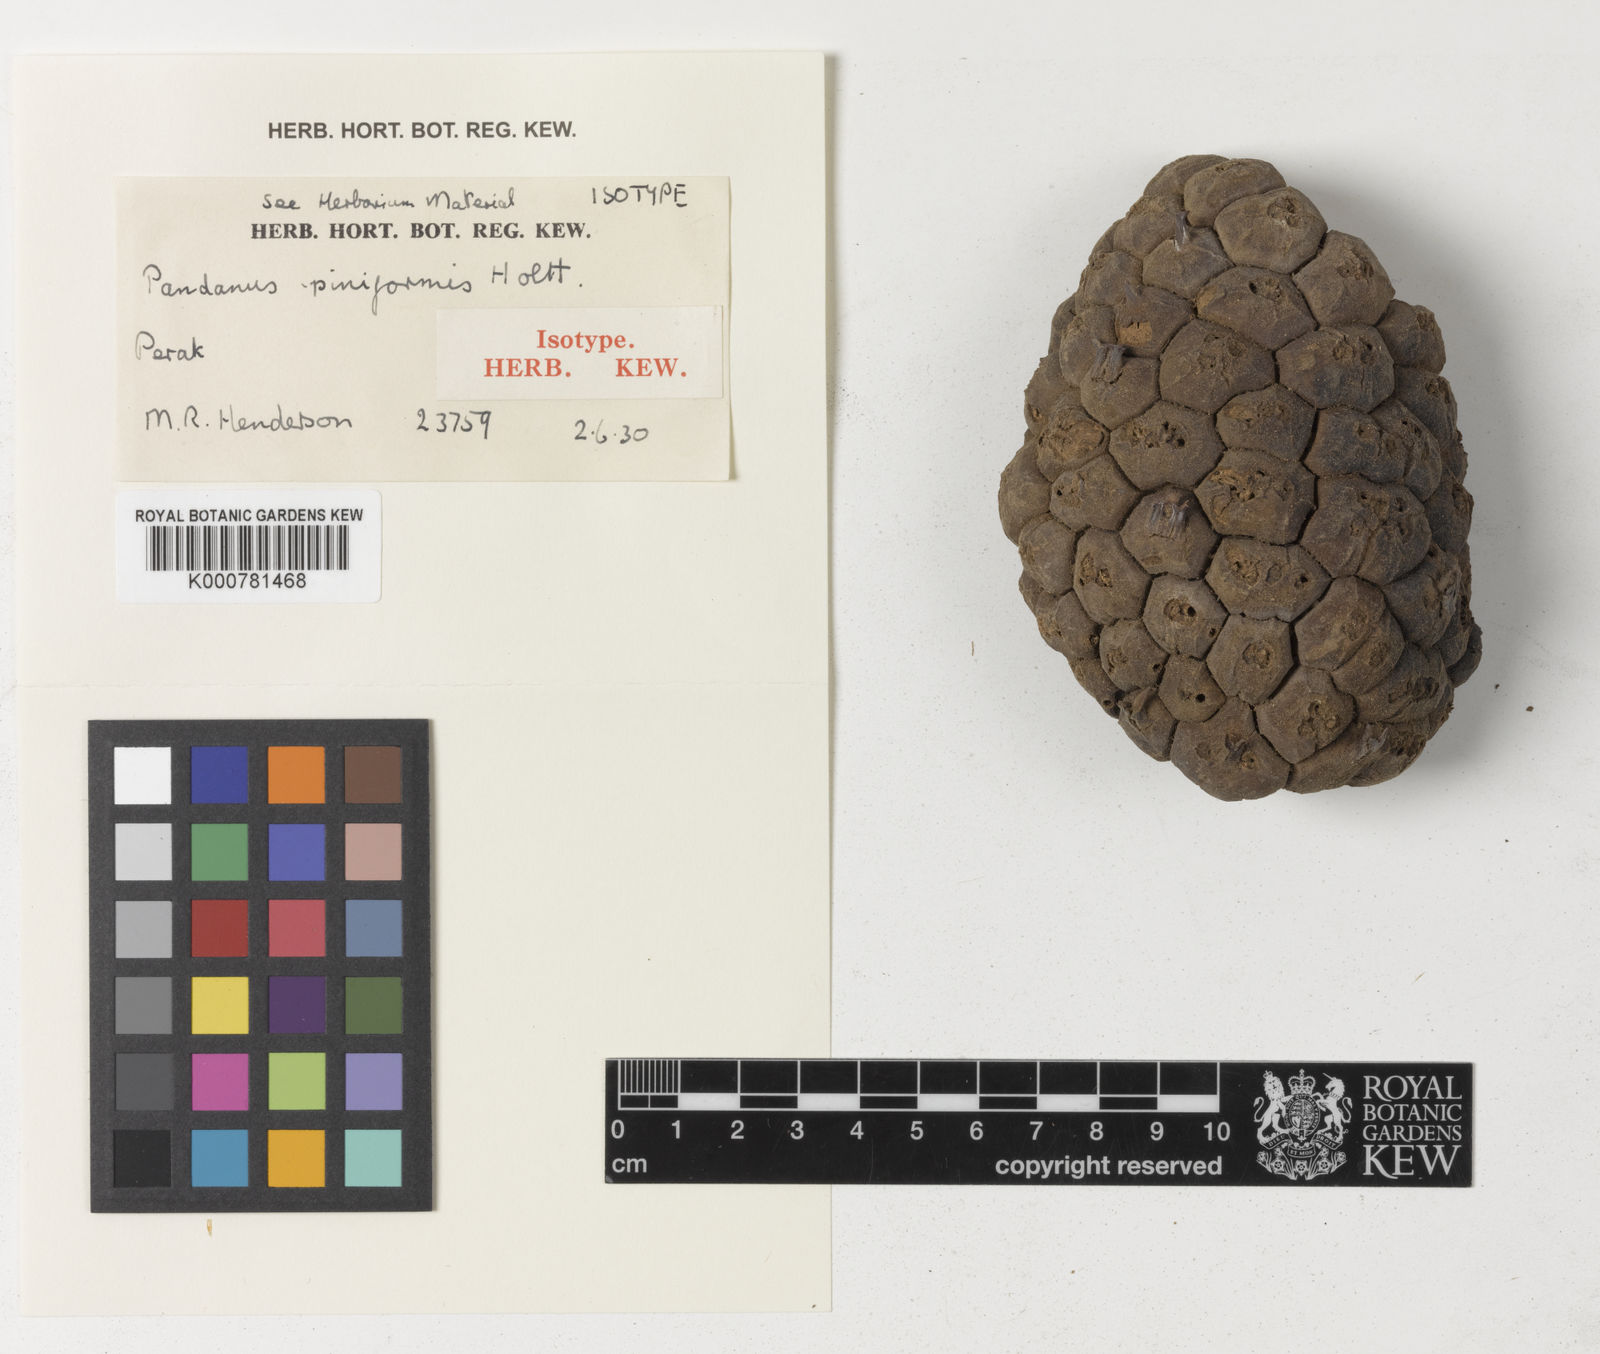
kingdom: Plantae
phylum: Tracheophyta
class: Liliopsida
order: Pandanales
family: Pandanaceae
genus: Pandanus
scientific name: Pandanus piniformis
